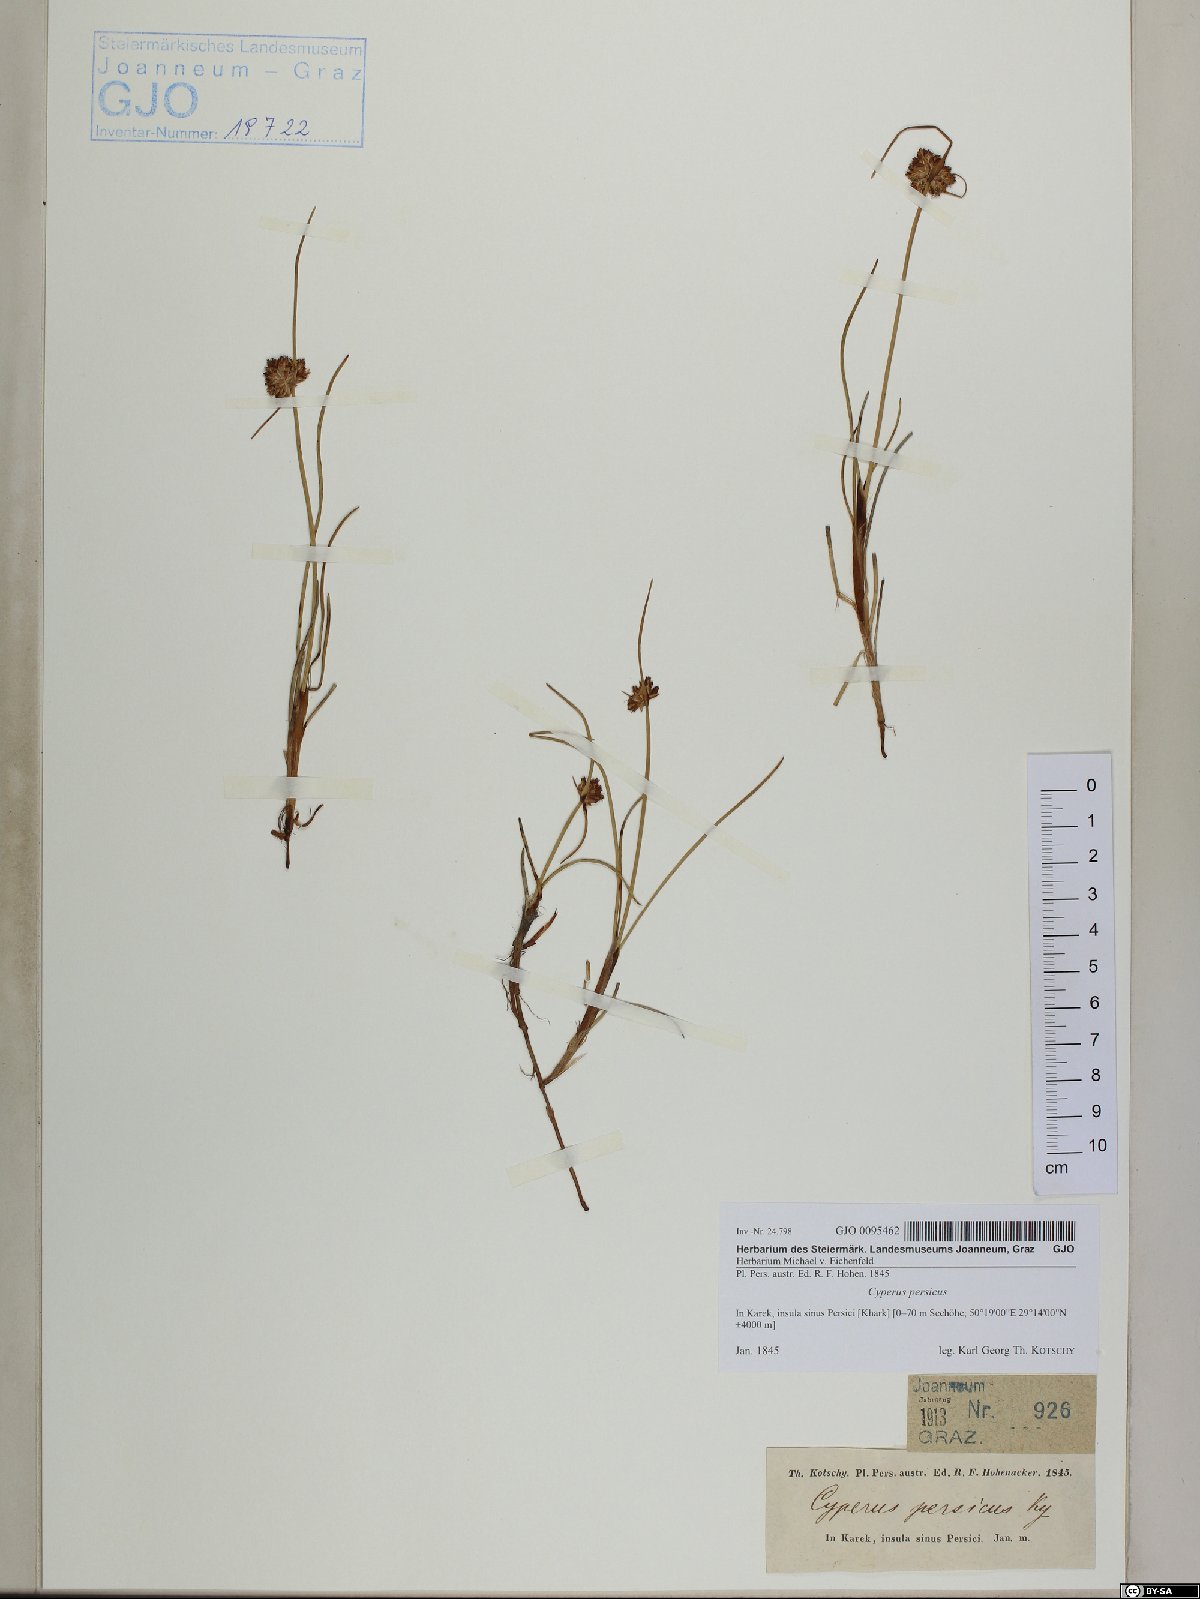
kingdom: Plantae
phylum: Tracheophyta
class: Liliopsida
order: Poales
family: Cyperaceae
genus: Cyperus
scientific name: Cyperus arenarius
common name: Dwarf sedge
